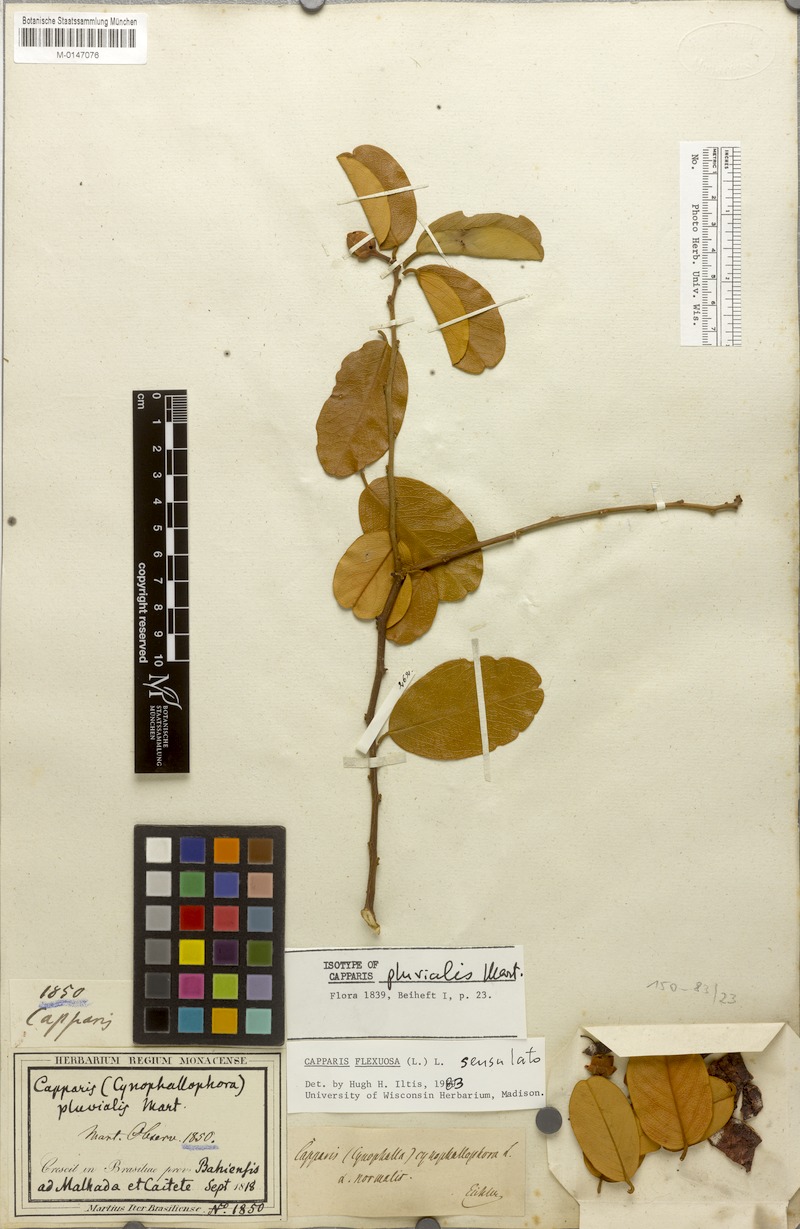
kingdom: Plantae
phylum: Tracheophyta
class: Magnoliopsida
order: Brassicales
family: Capparaceae
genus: Cynophalla
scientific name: Cynophalla flexuosa
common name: Capertree
